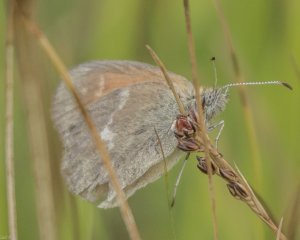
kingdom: Animalia
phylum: Arthropoda
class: Insecta
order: Lepidoptera
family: Nymphalidae
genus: Coenonympha
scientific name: Coenonympha inornata
